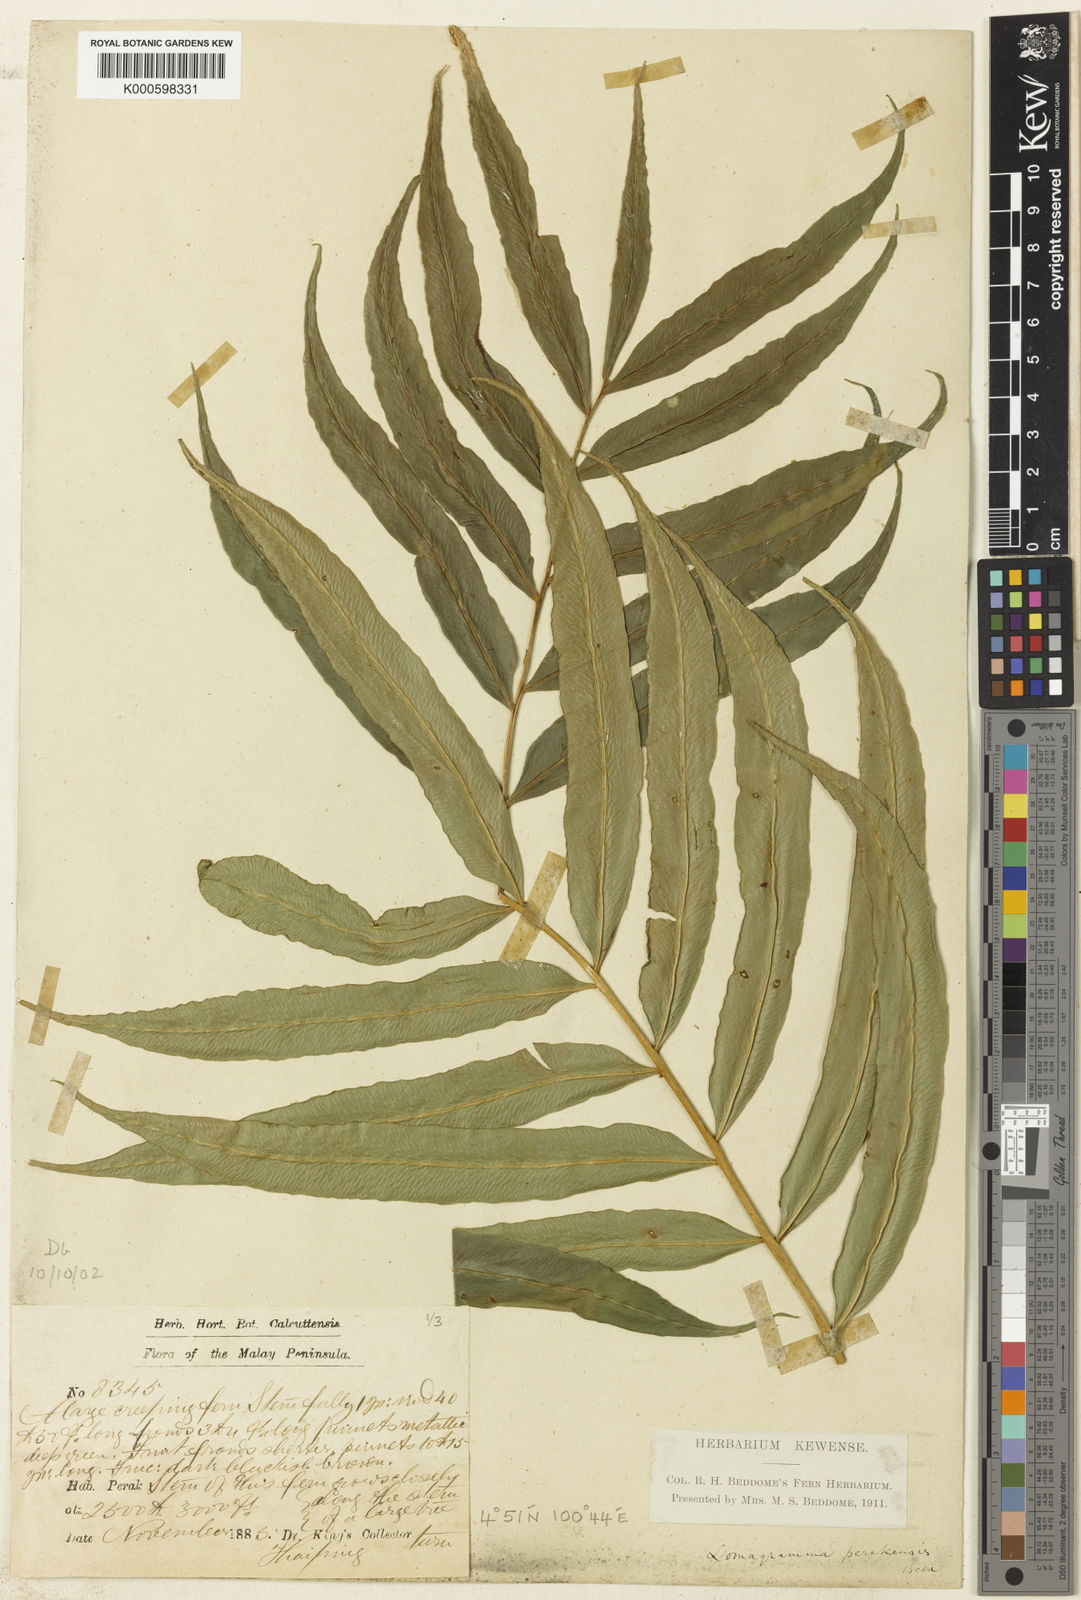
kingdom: Plantae
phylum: Tracheophyta
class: Polypodiopsida
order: Polypodiales
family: Dryopteridaceae
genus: Lomagramma
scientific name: Lomagramma perakensis
